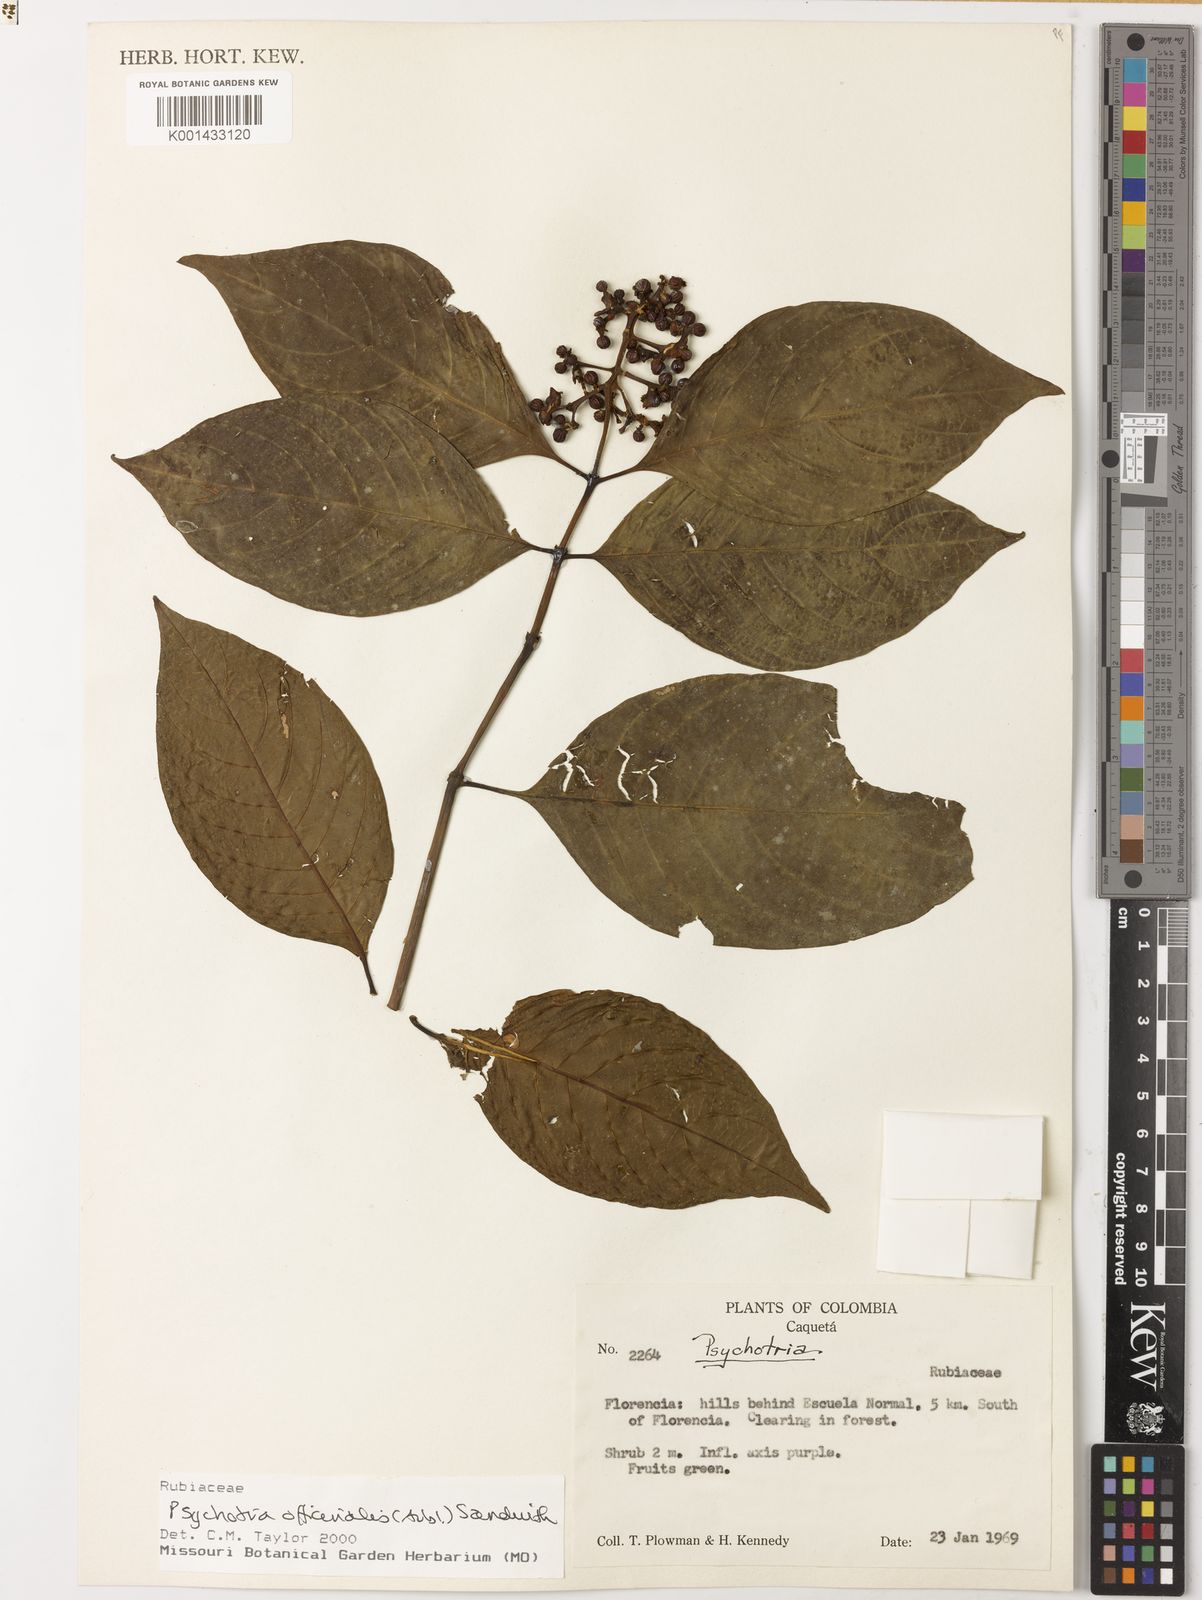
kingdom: Plantae
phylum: Tracheophyta
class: Magnoliopsida
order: Gentianales
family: Rubiaceae
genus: Psychotria
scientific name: Psychotria
